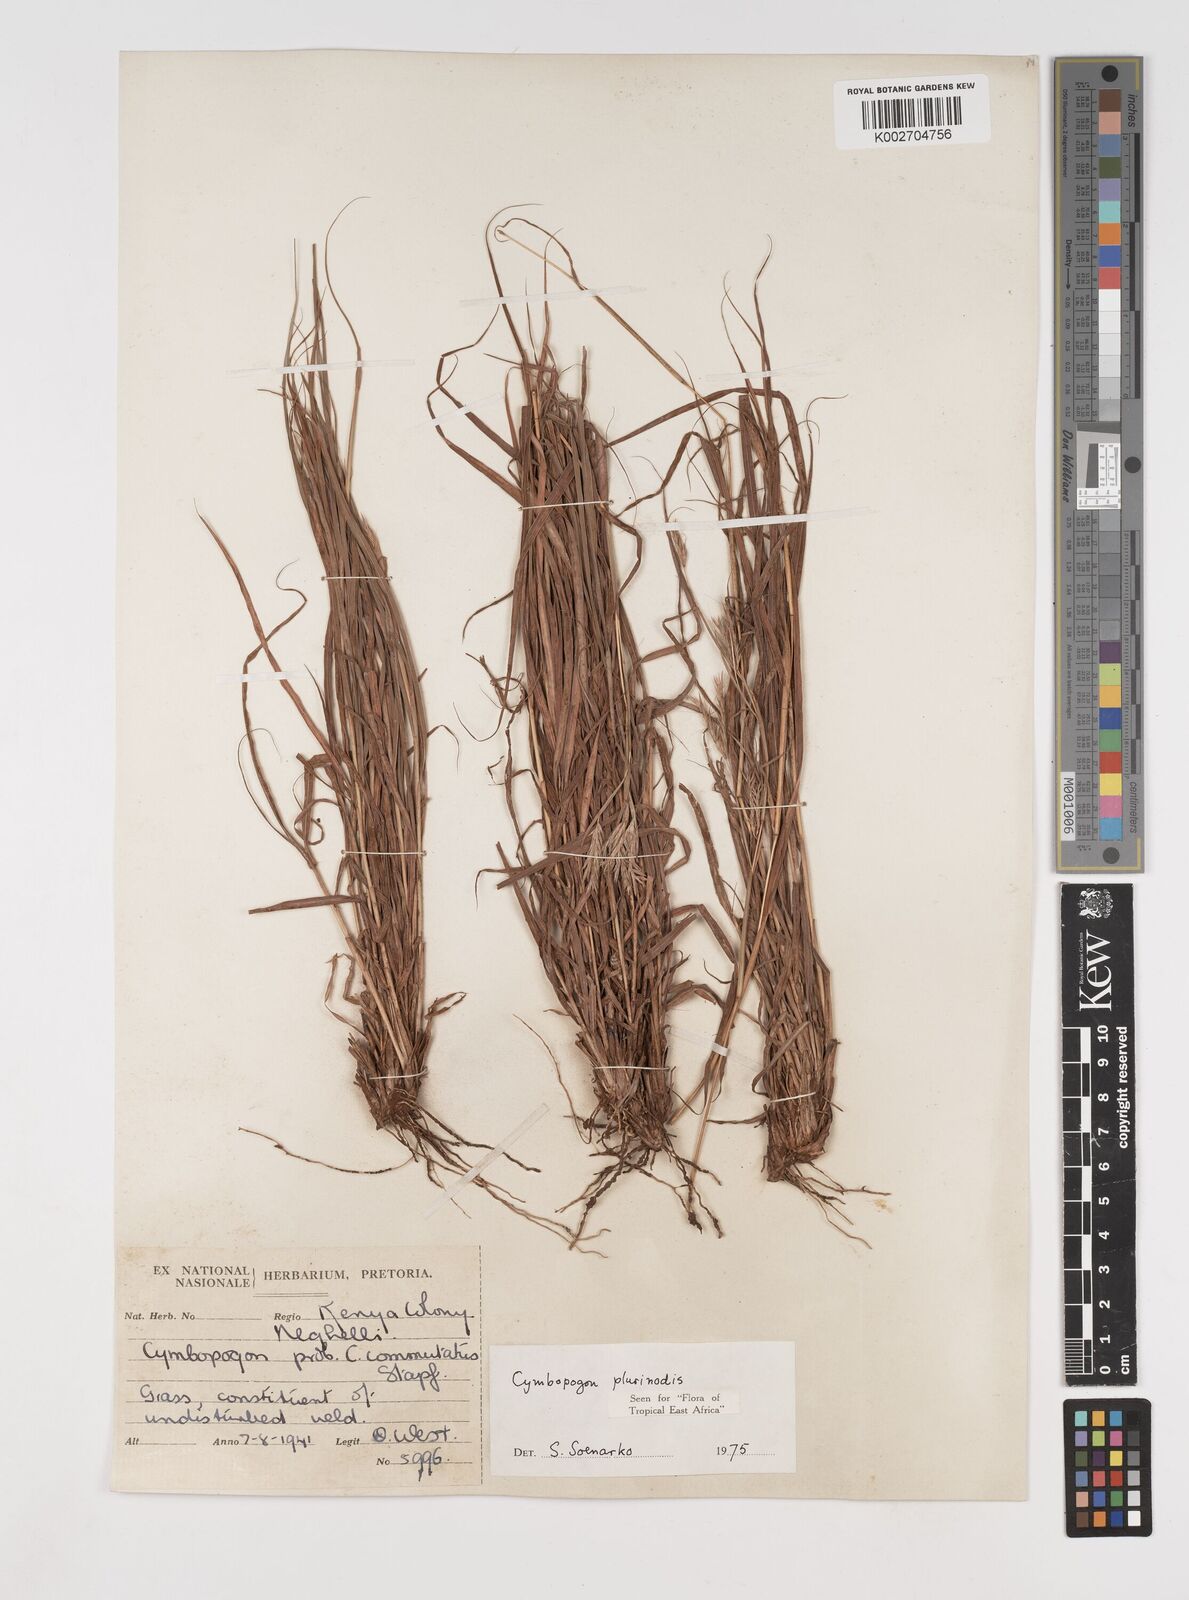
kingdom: Plantae
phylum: Tracheophyta
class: Liliopsida
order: Poales
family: Poaceae
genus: Cymbopogon
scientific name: Cymbopogon pospischilii
